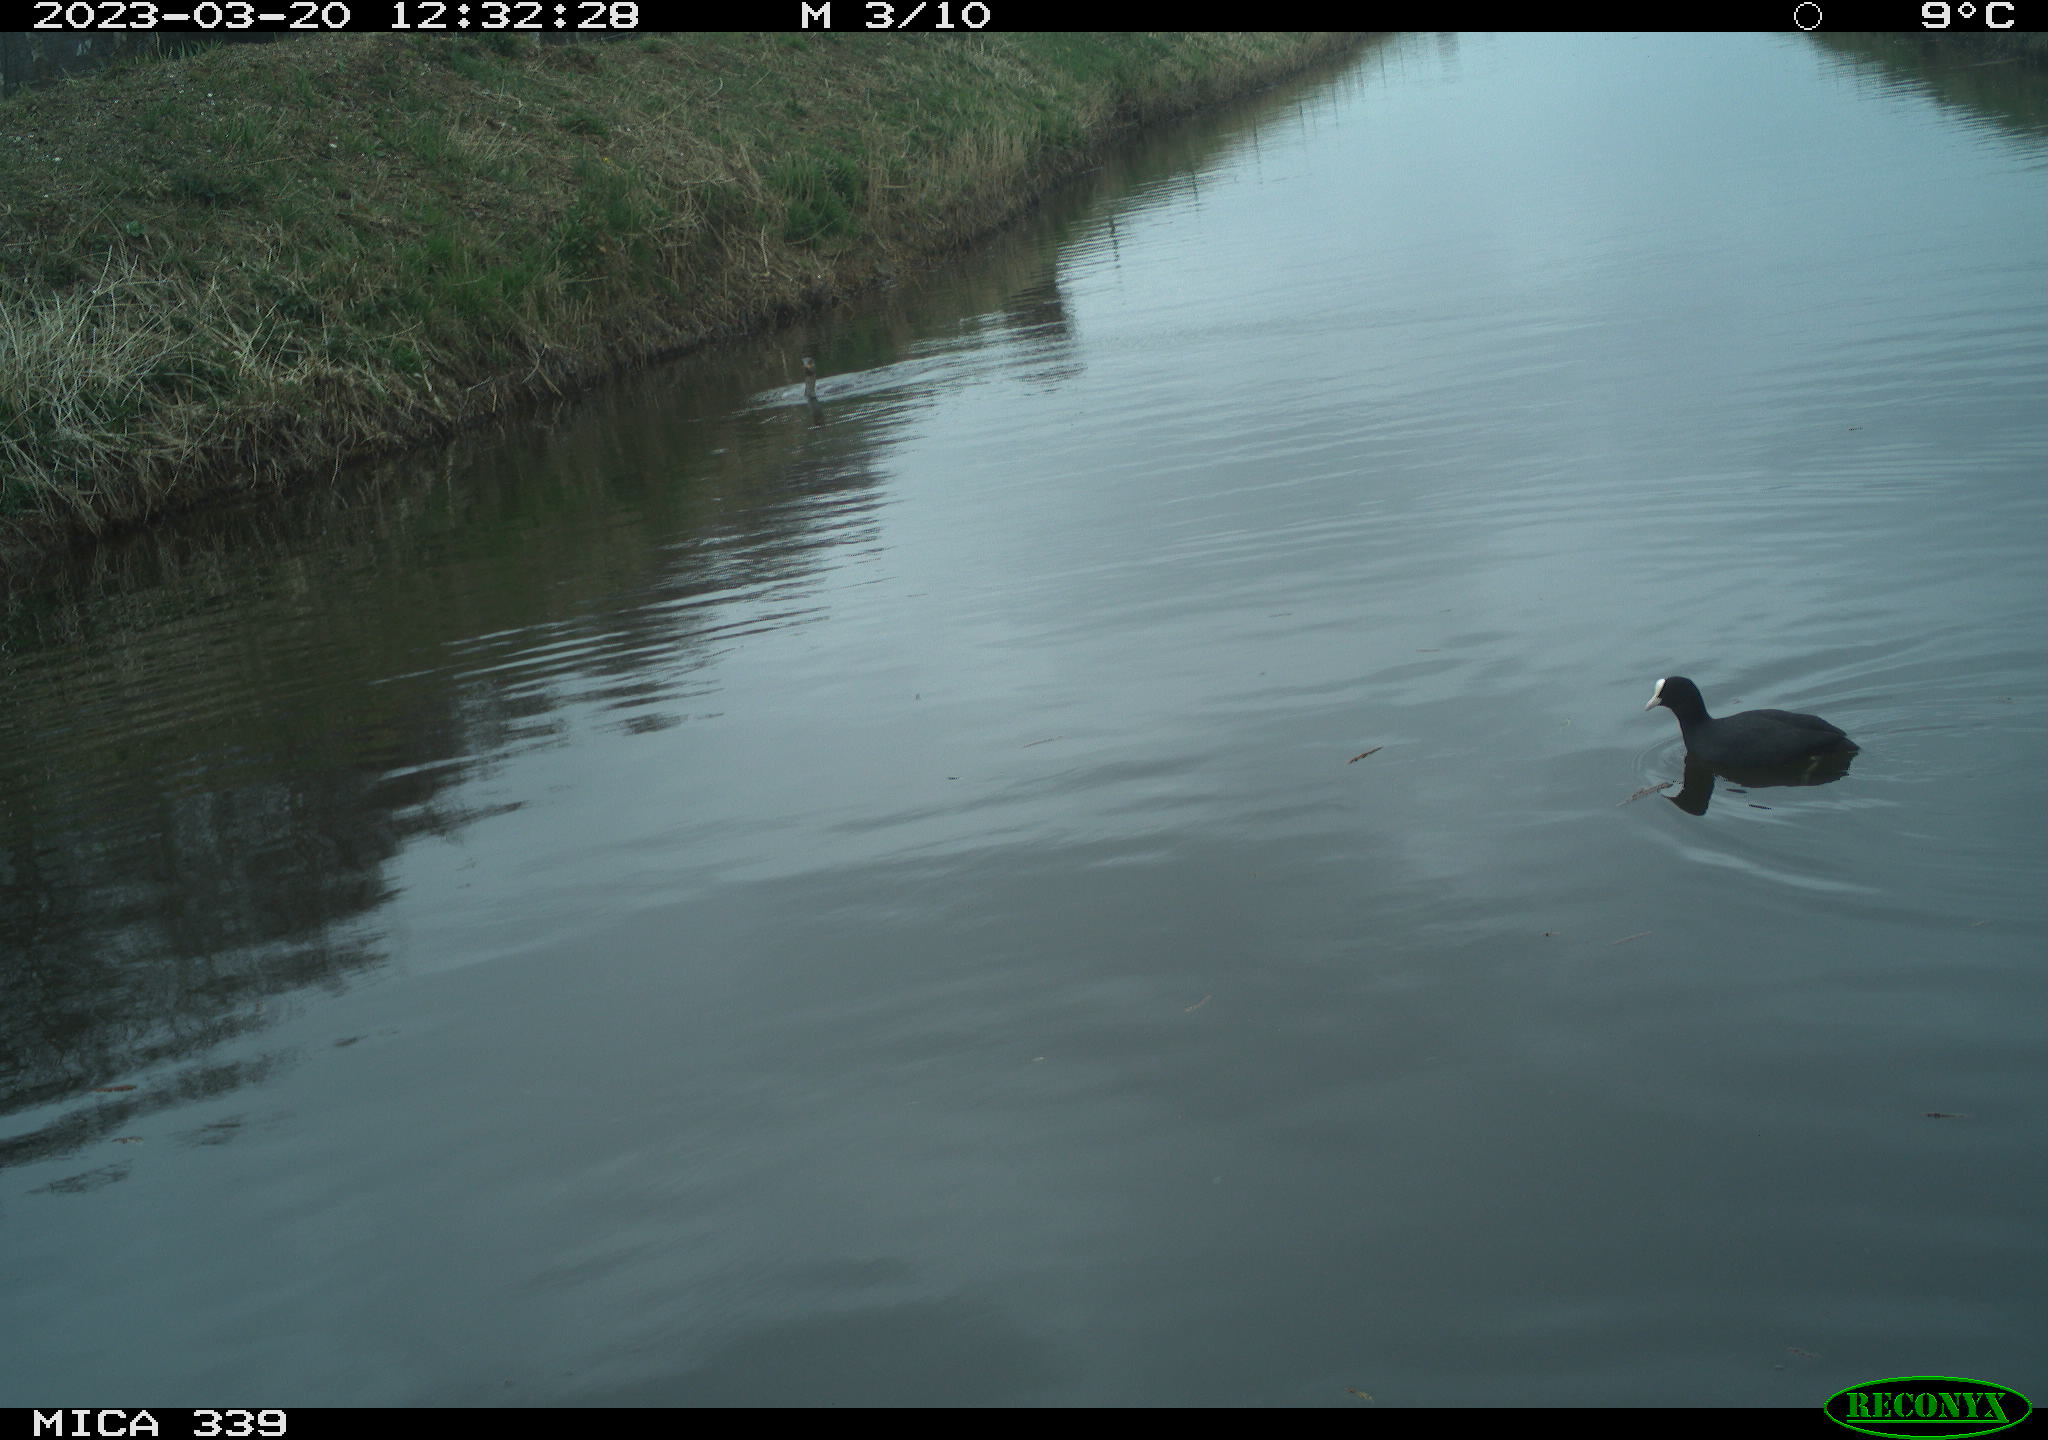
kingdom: Animalia
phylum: Chordata
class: Aves
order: Suliformes
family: Phalacrocoracidae
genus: Phalacrocorax
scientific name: Phalacrocorax carbo
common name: Great cormorant
